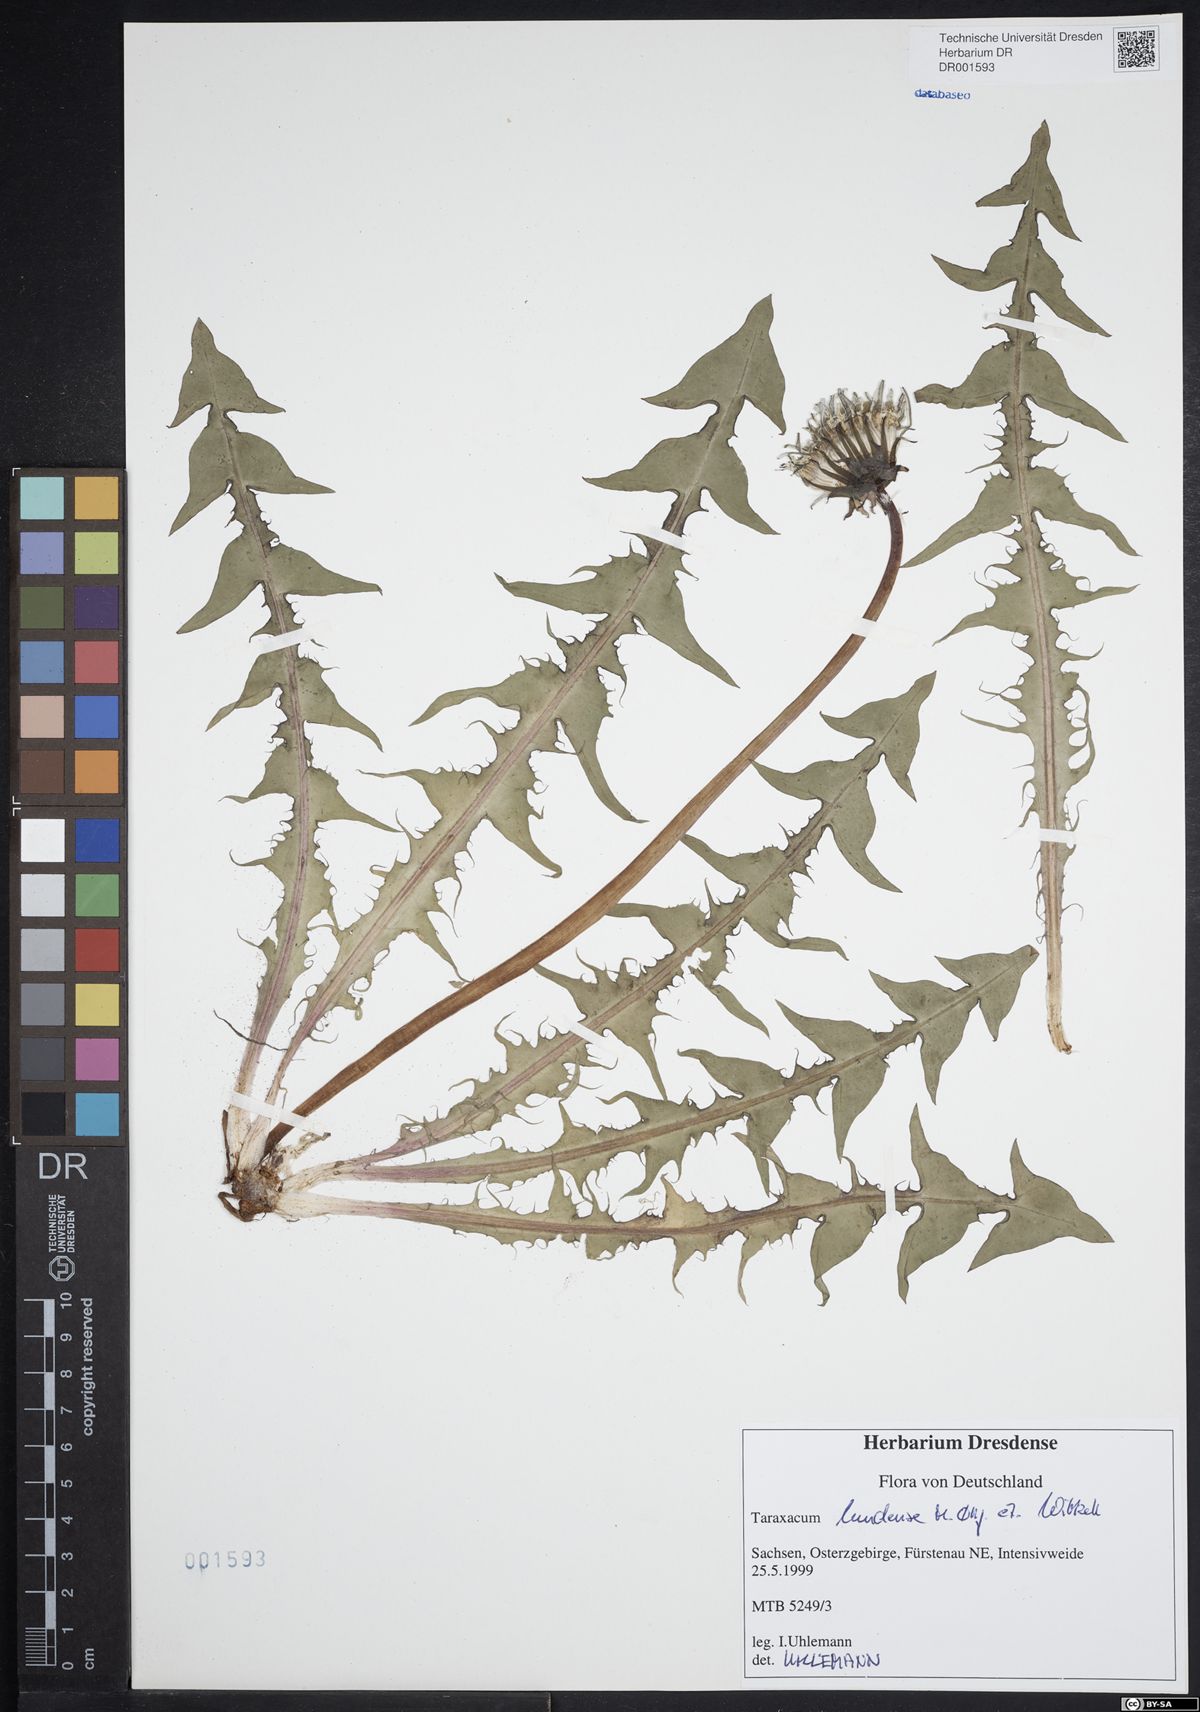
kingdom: Plantae
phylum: Tracheophyta
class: Magnoliopsida
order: Asterales
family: Asteraceae
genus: Taraxacum
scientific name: Taraxacum lundense
